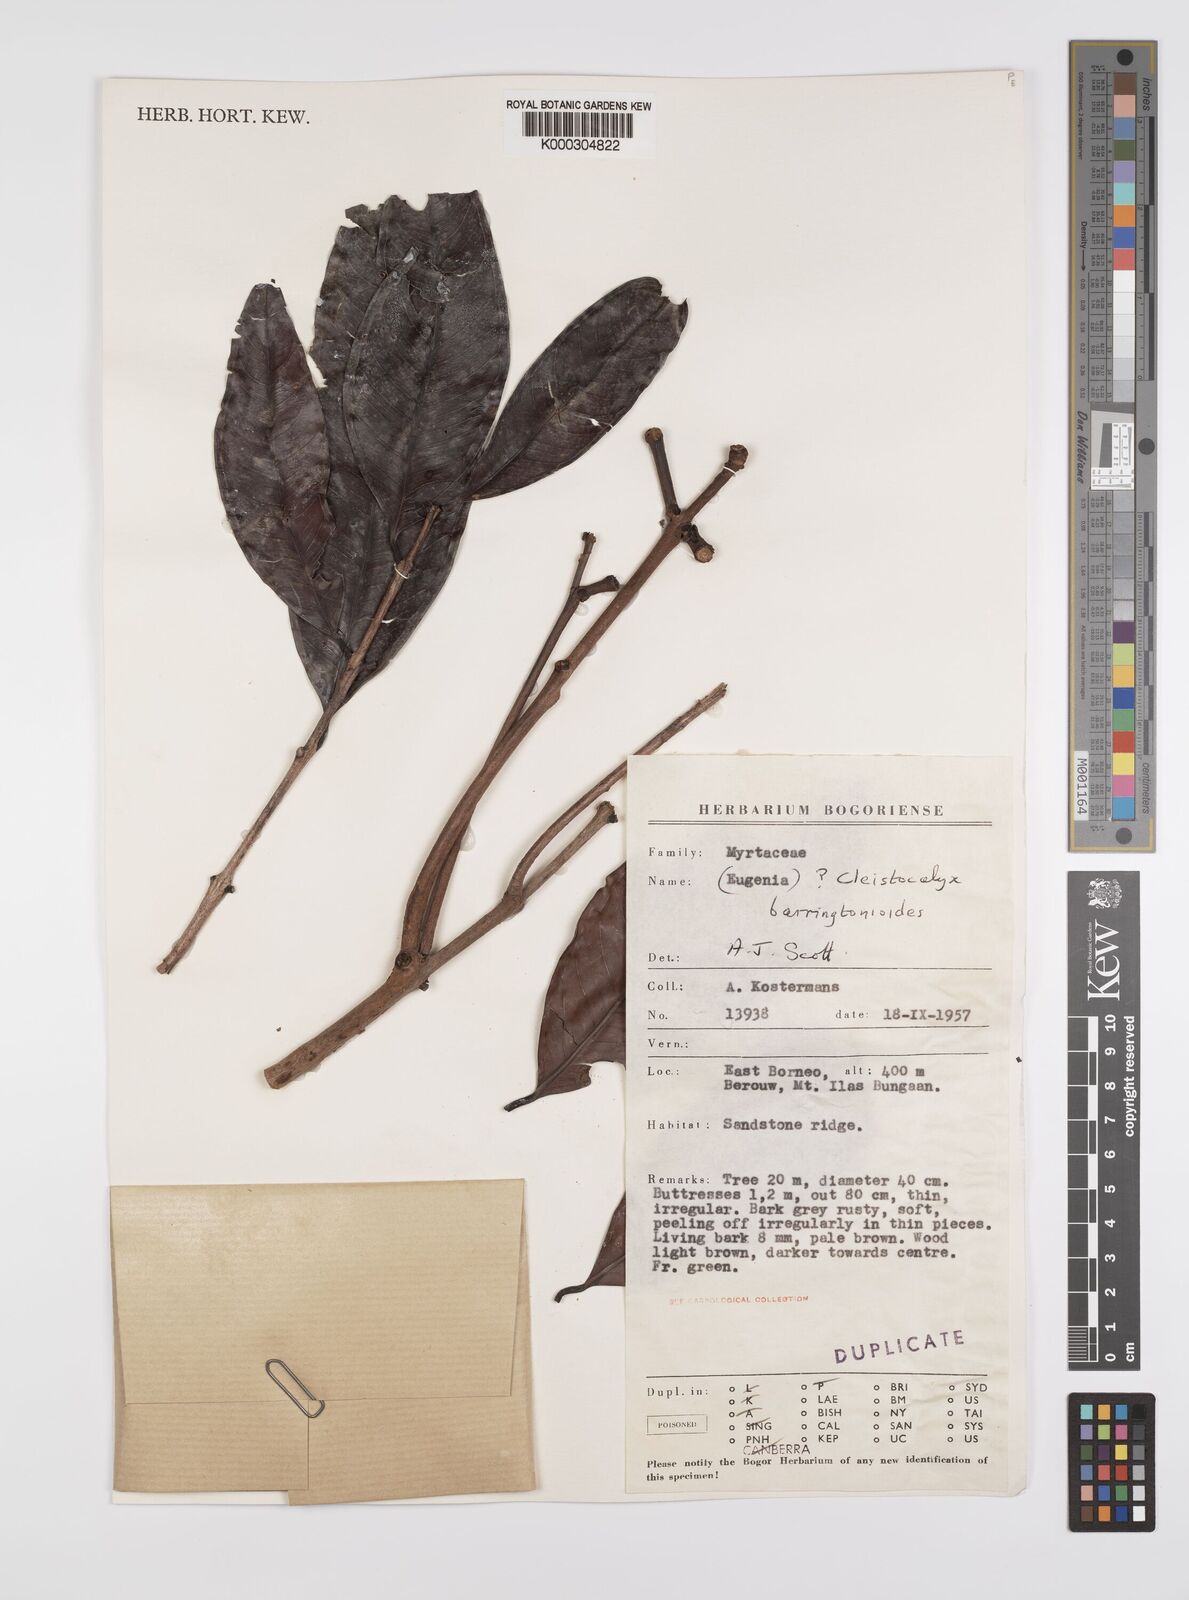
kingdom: Plantae
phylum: Tracheophyta
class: Magnoliopsida
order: Myrtales
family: Myrtaceae
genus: Syzygium
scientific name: Syzygium barringtonioides
